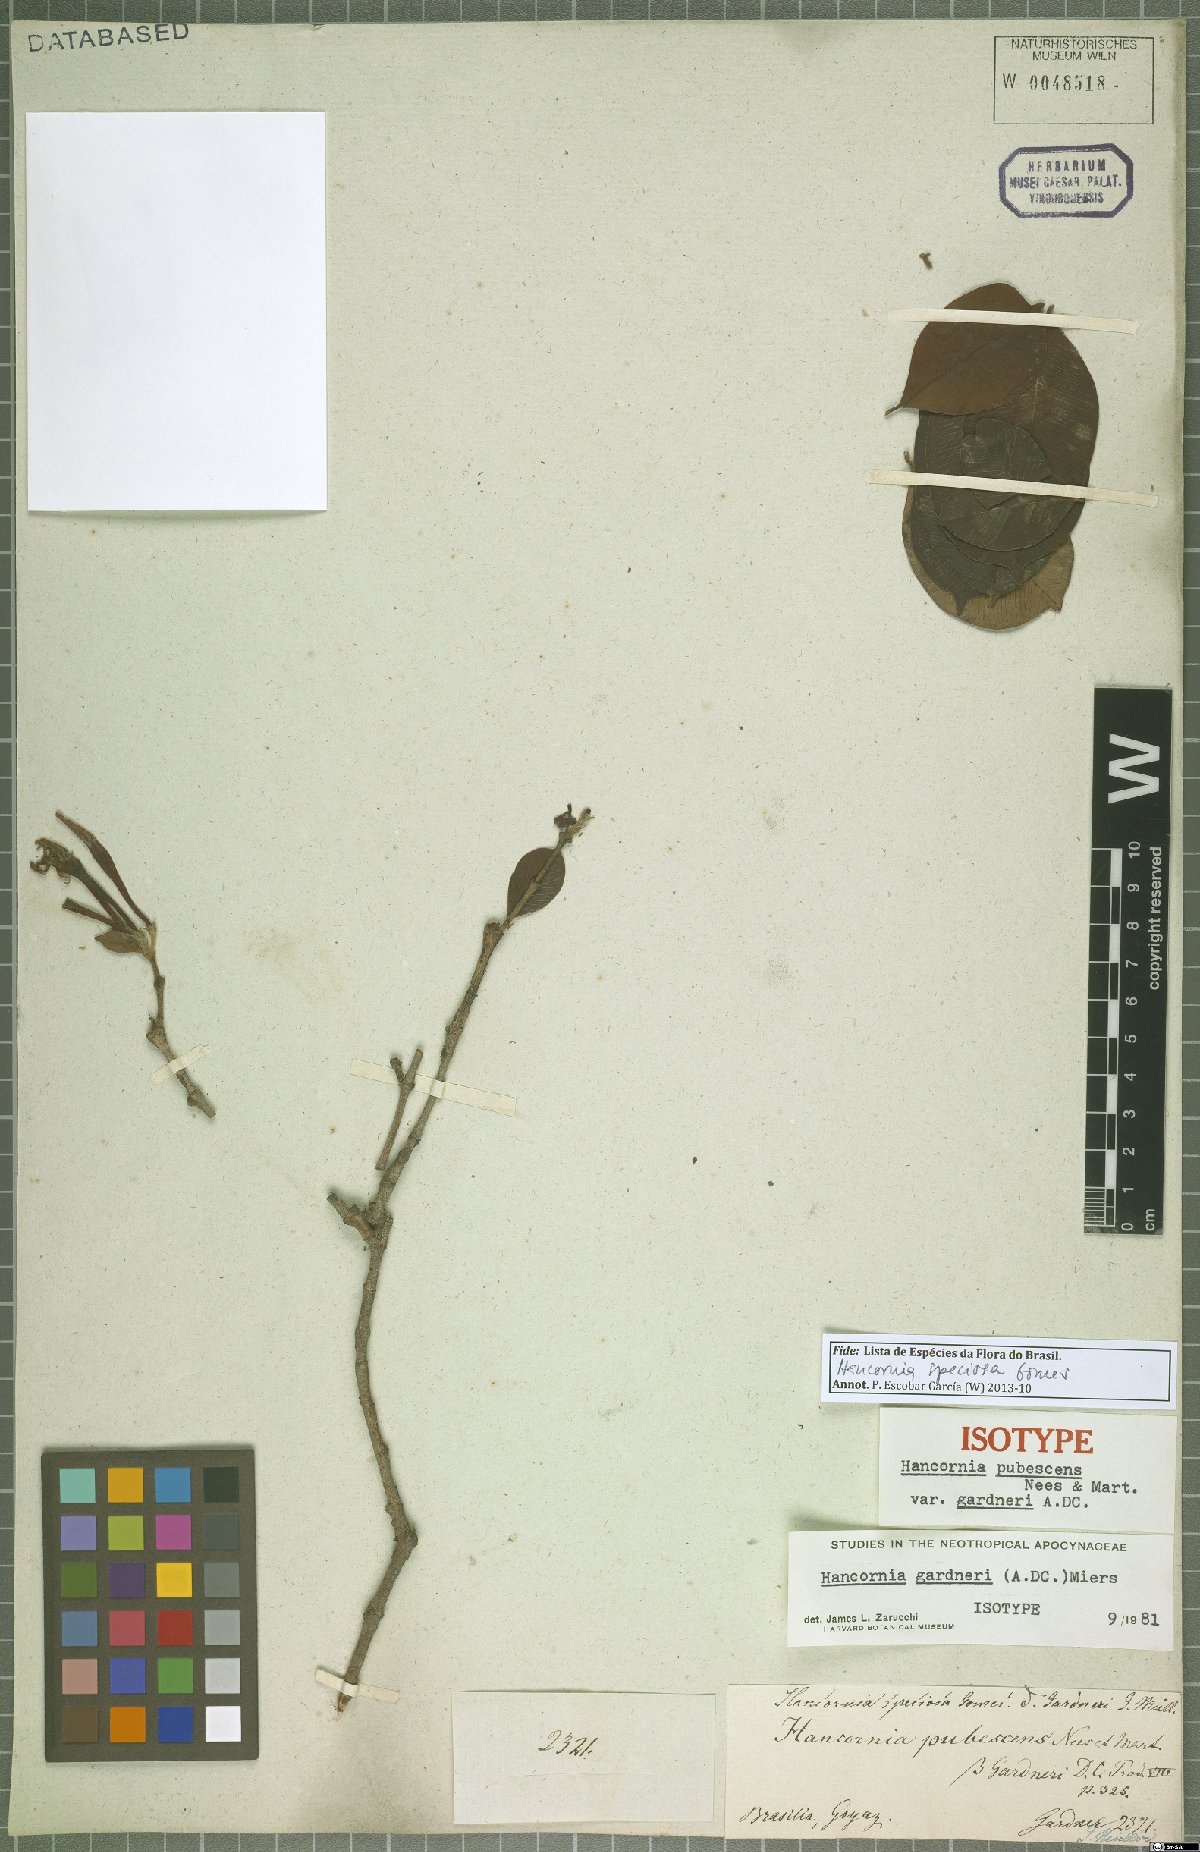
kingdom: Plantae
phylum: Tracheophyta
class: Magnoliopsida
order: Gentianales
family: Apocynaceae
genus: Hancornia
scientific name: Hancornia speciosa
